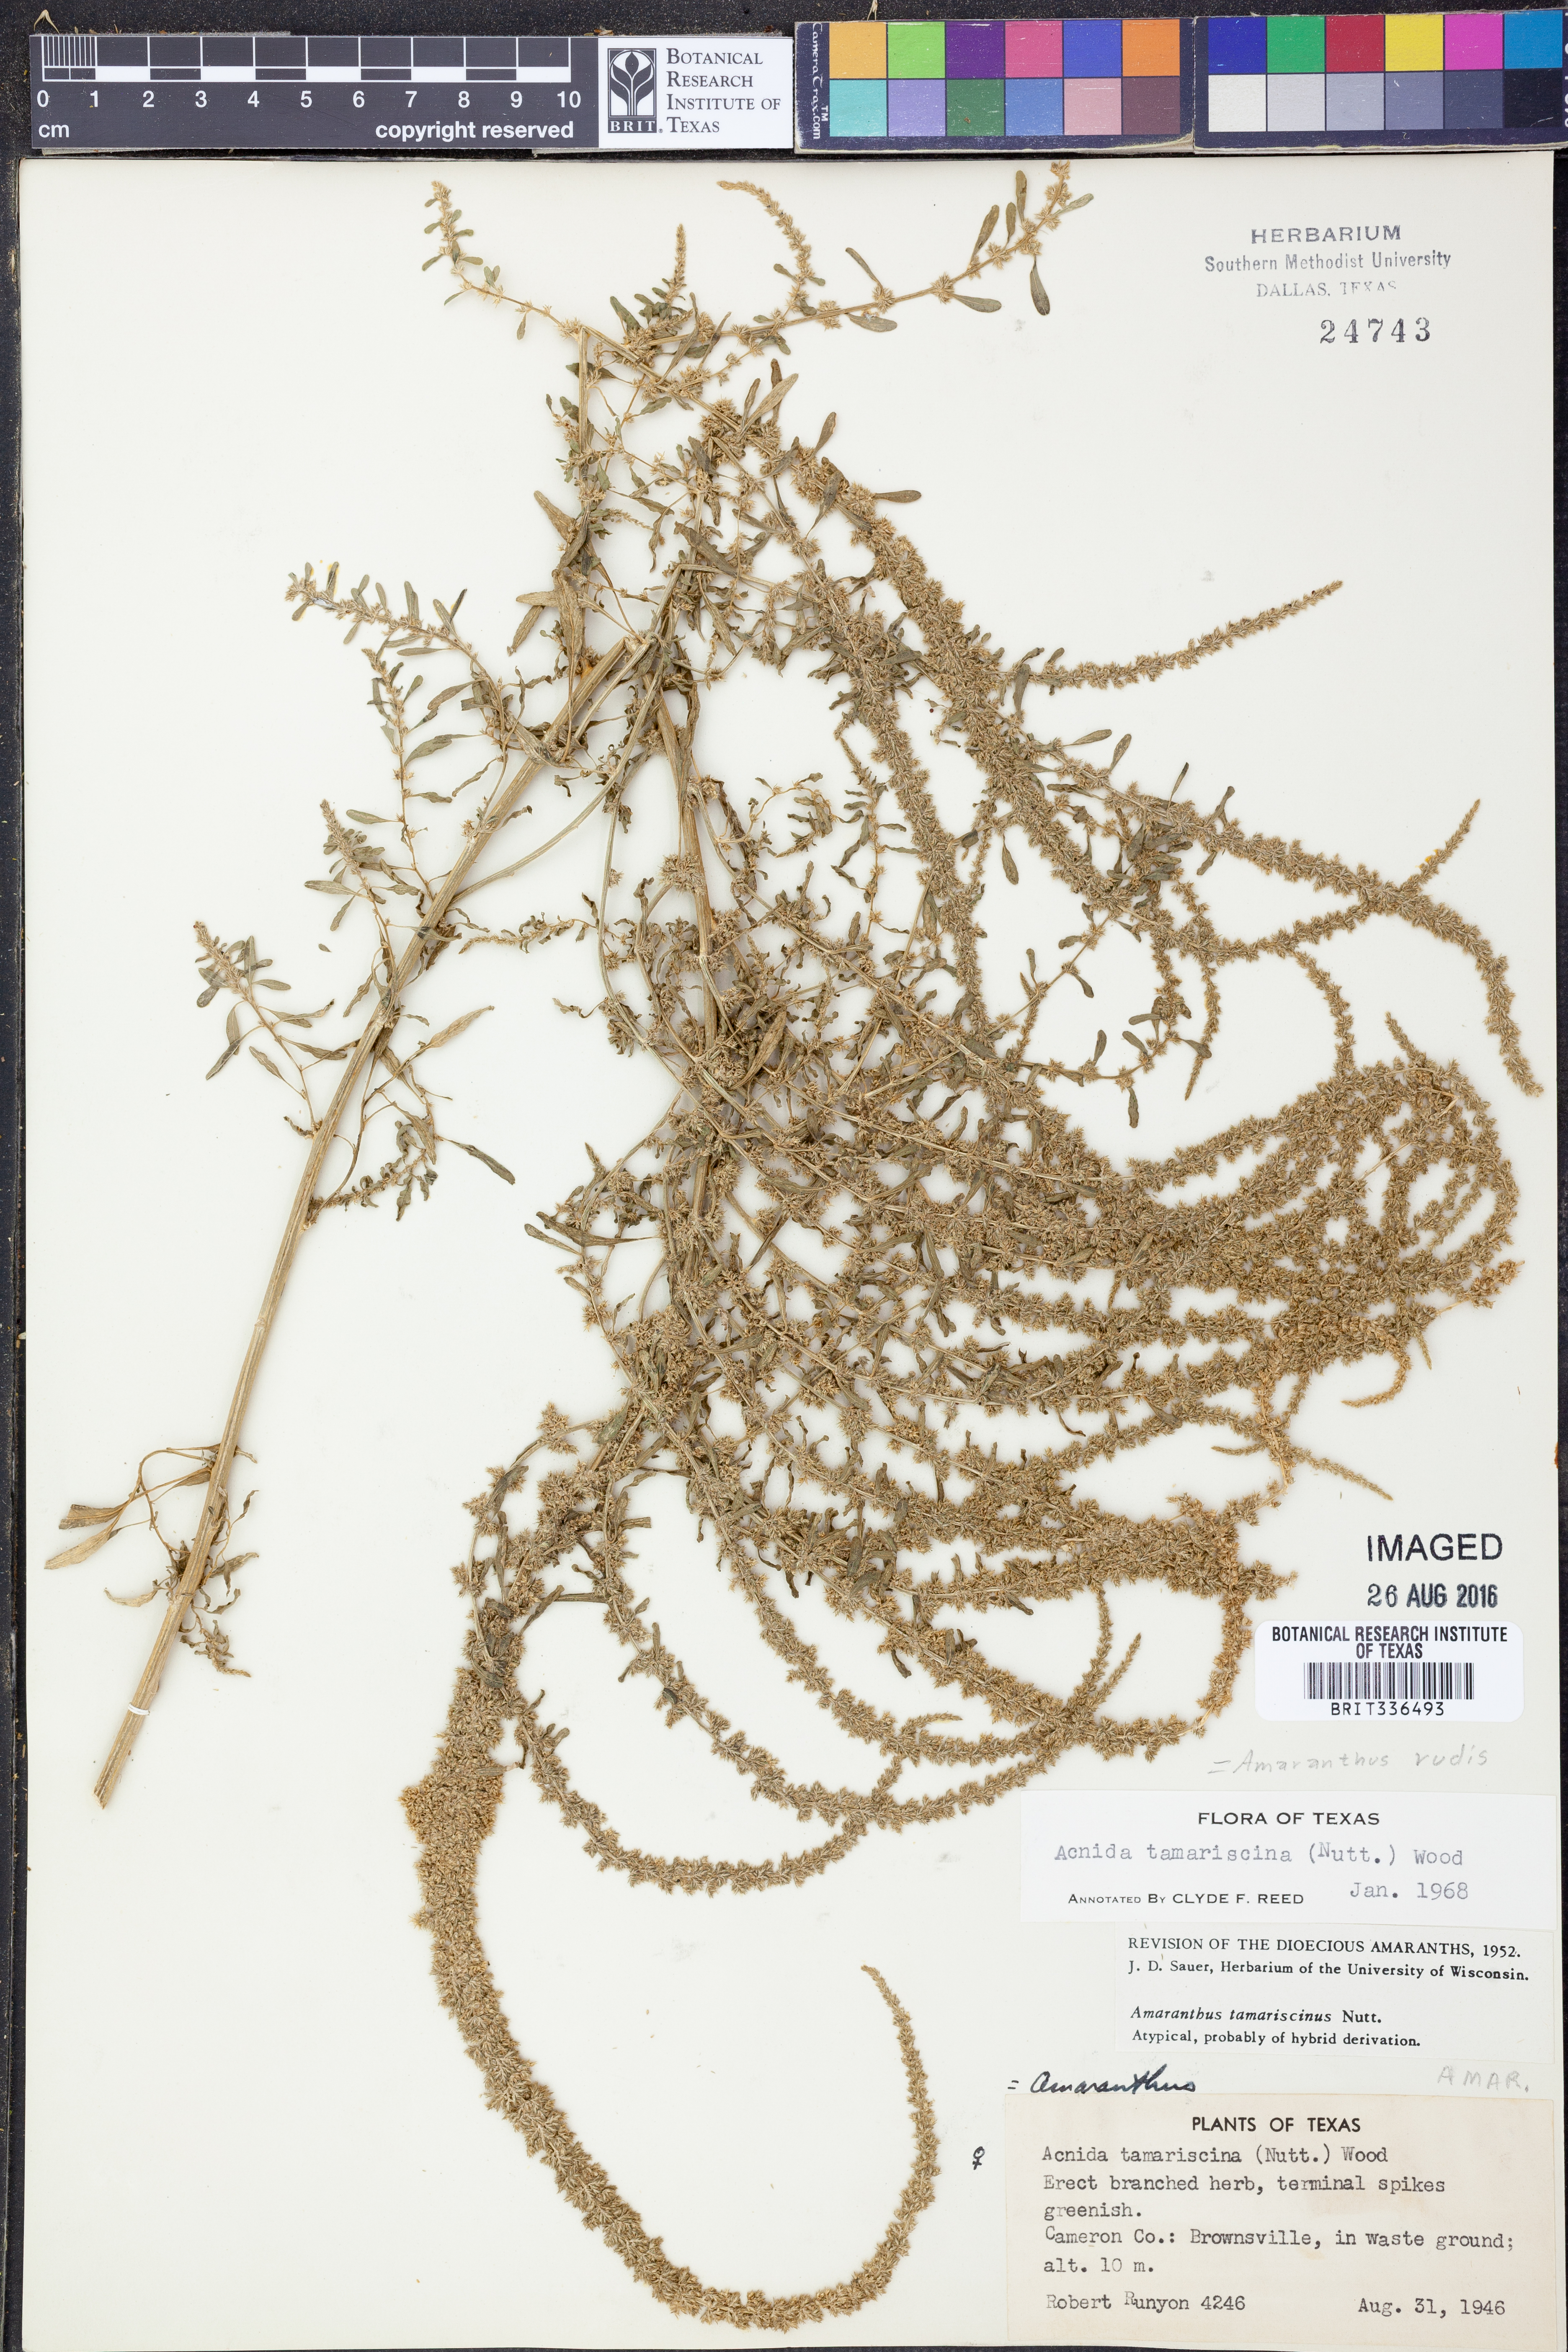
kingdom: Plantae
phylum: Tracheophyta
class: Magnoliopsida
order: Caryophyllales
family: Amaranthaceae
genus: Amaranthus
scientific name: Amaranthus tuberculatus
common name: Rough-fruit amaranth
